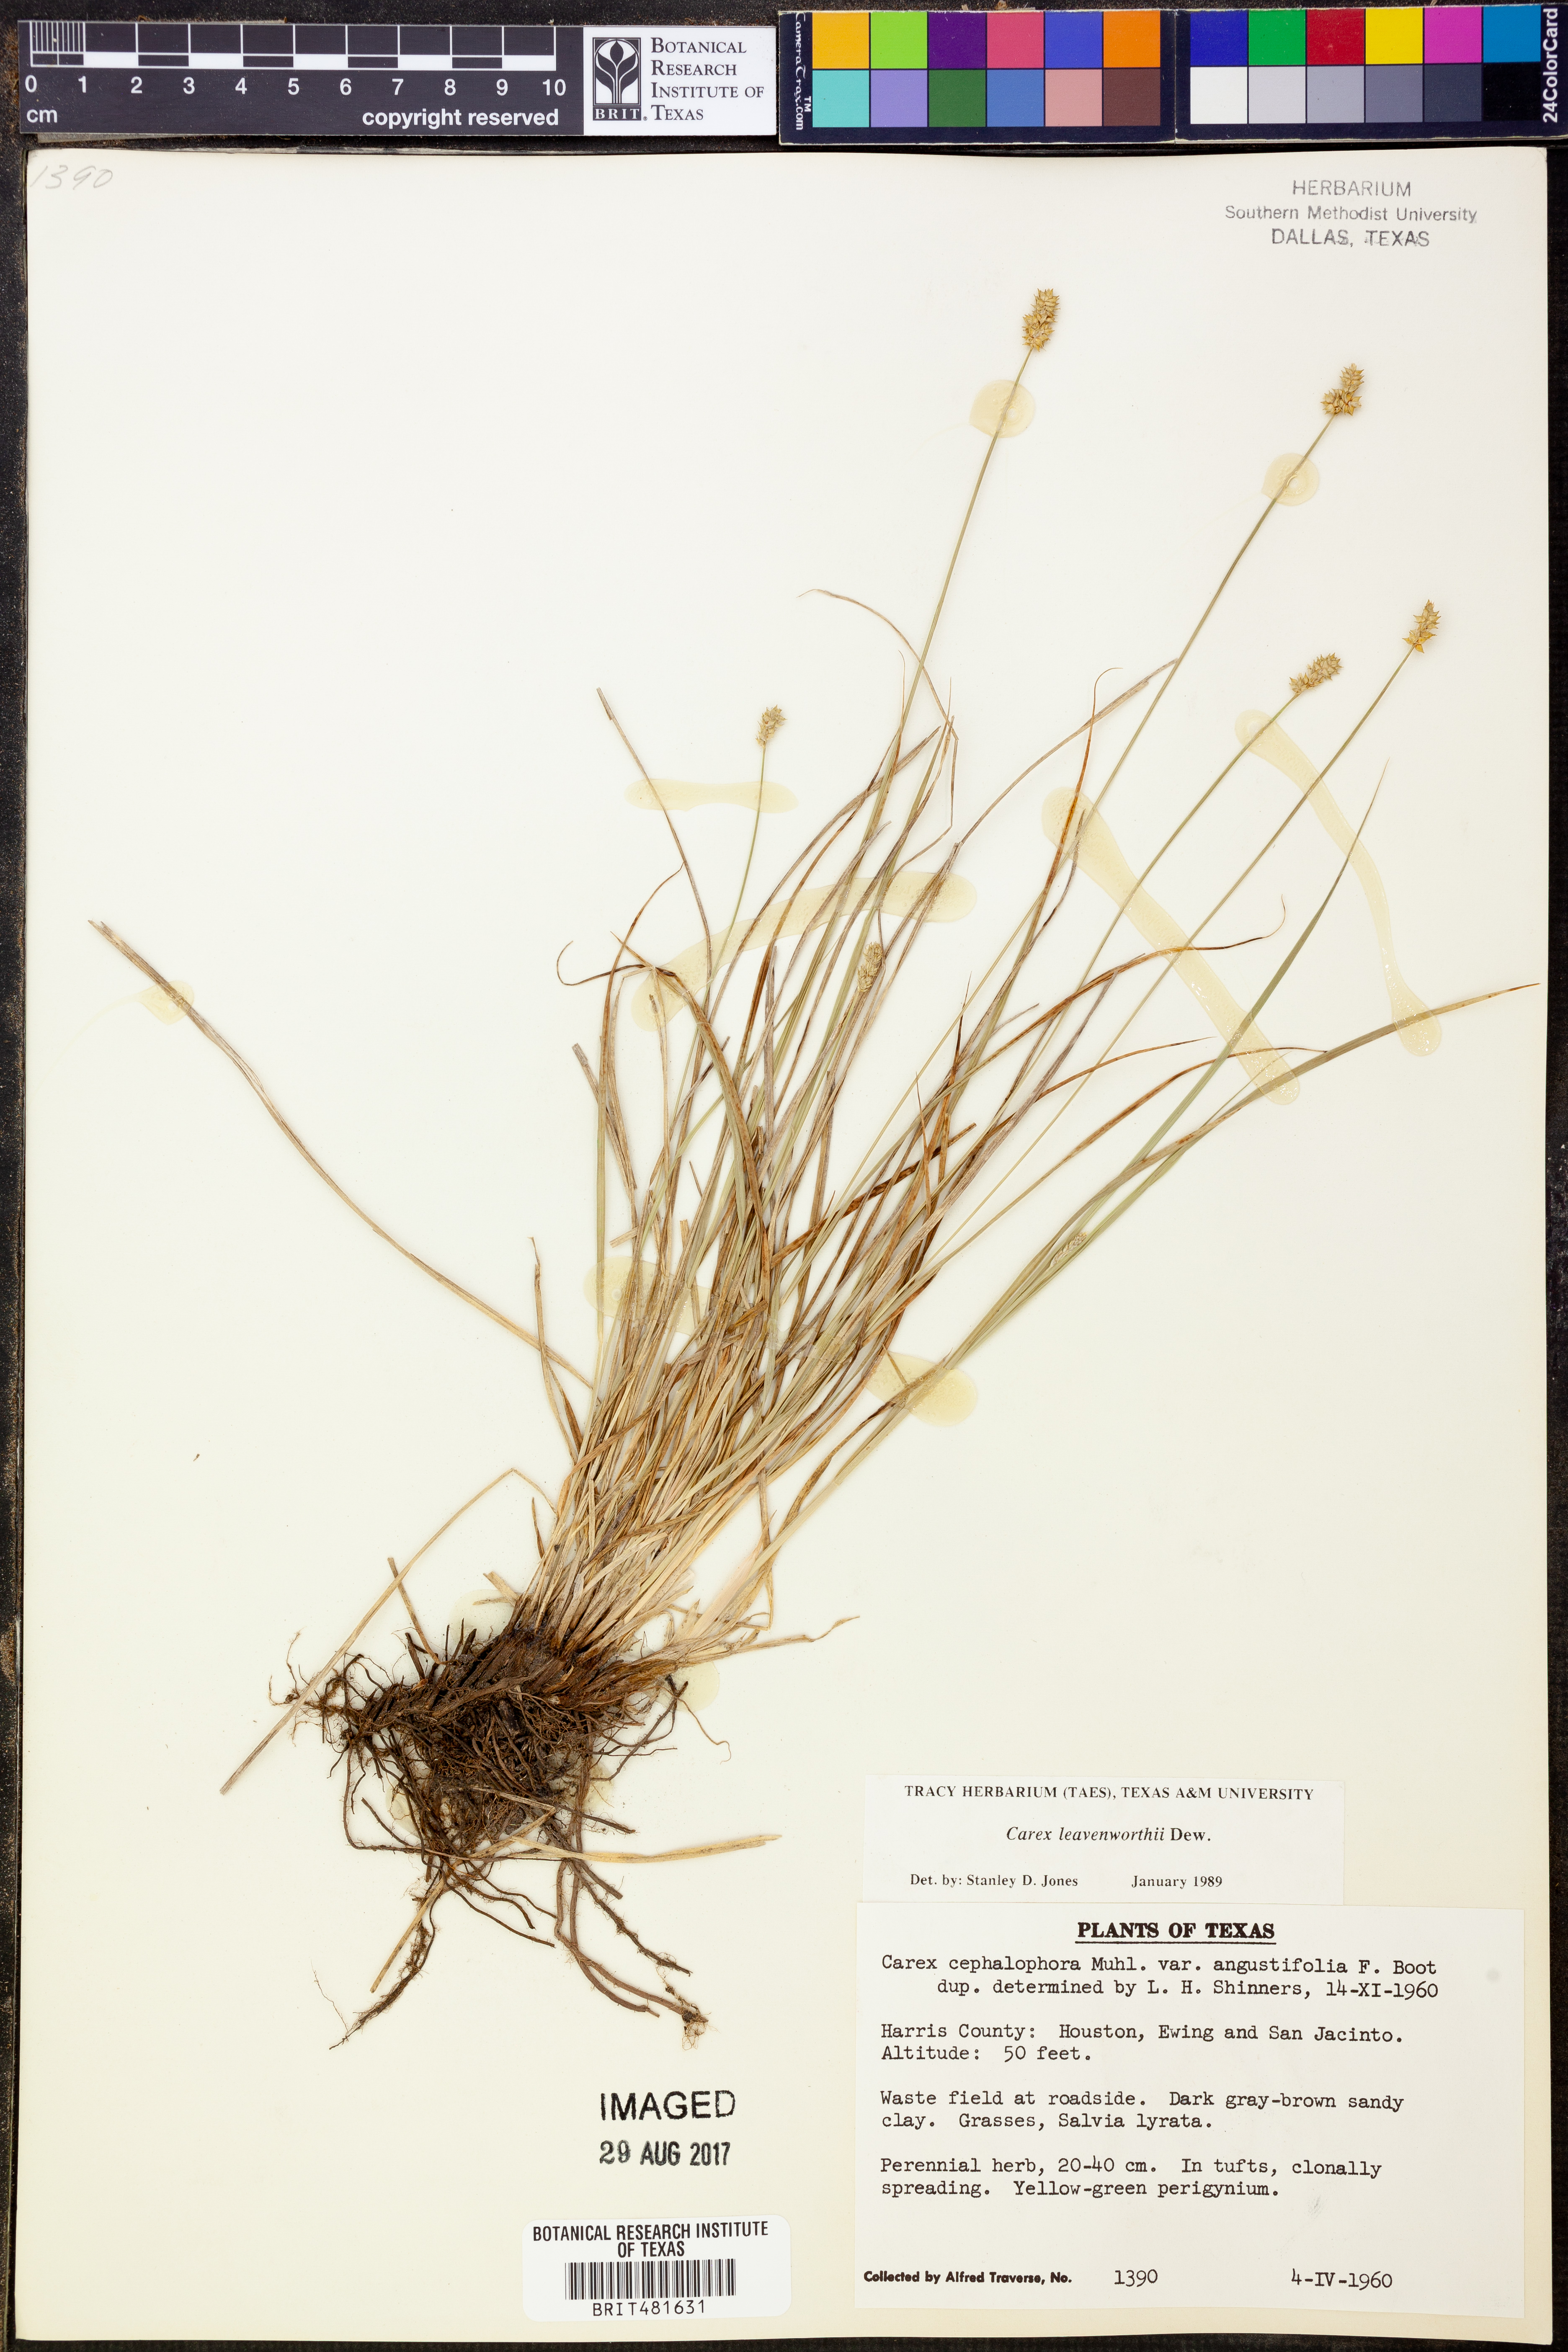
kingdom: Plantae
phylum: Tracheophyta
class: Liliopsida
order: Poales
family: Cyperaceae
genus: Carex
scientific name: Carex leavenworthii
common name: Leavenworth's bracted sedge
